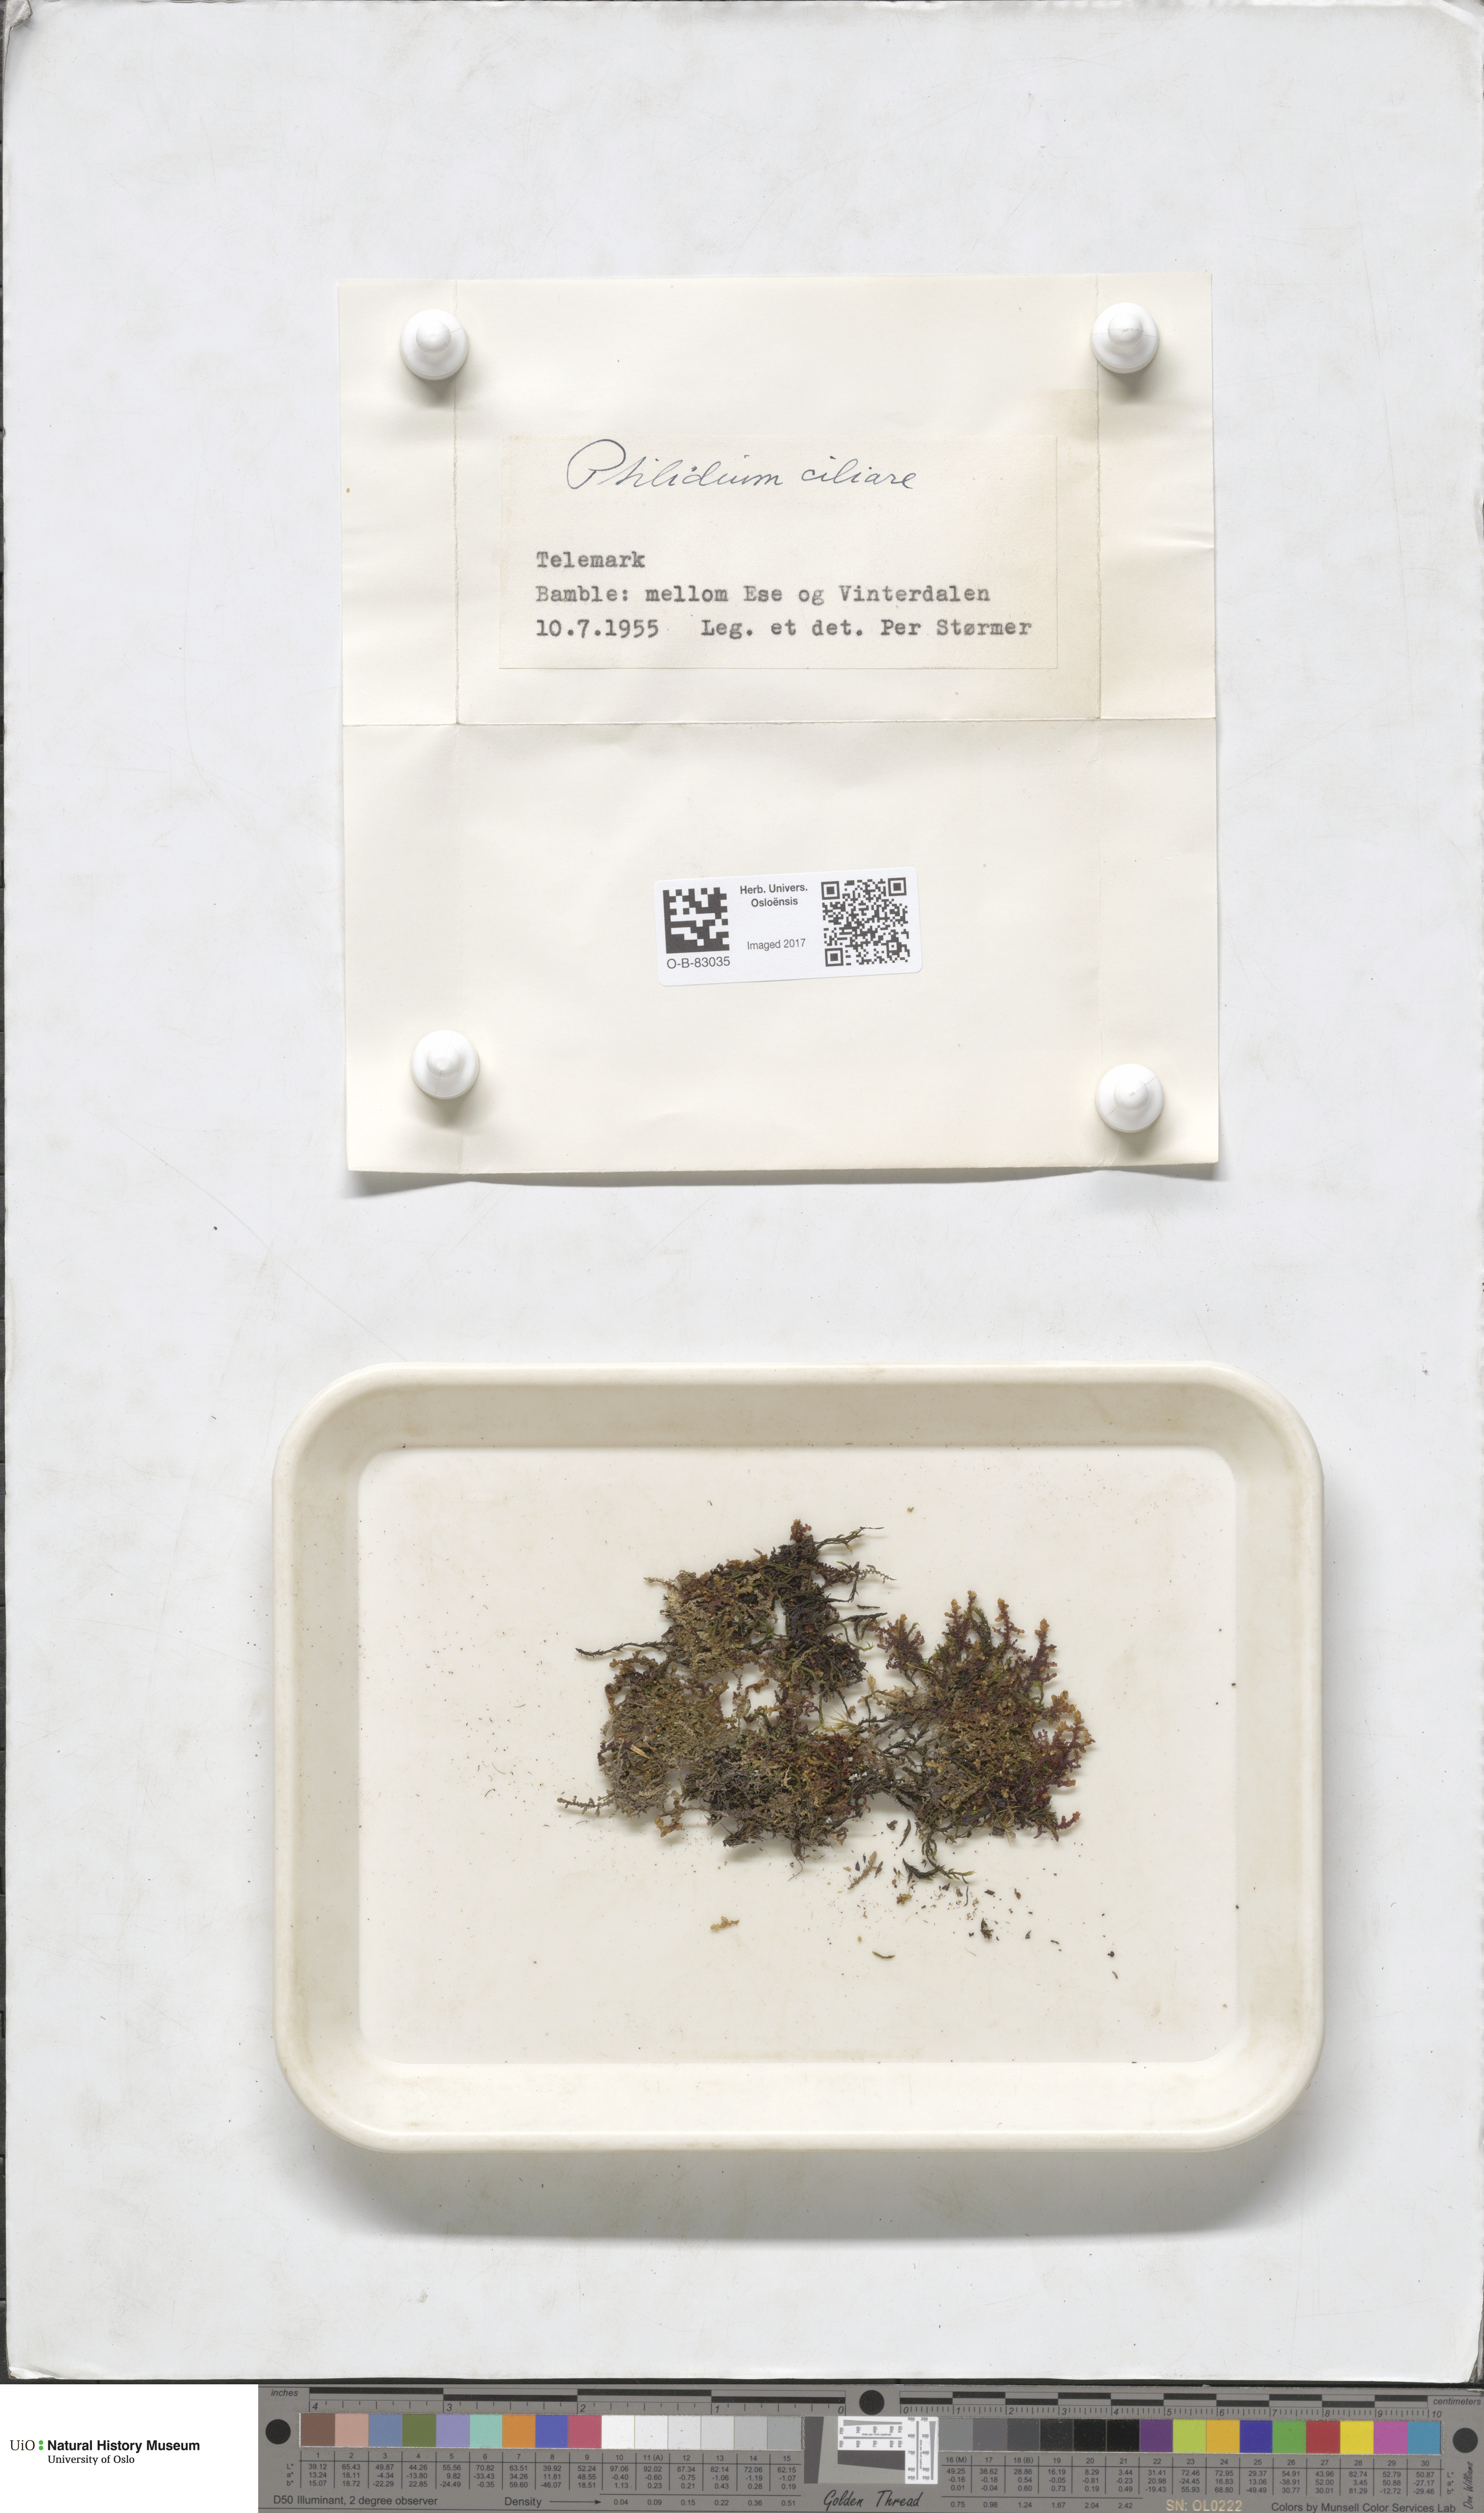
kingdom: Plantae
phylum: Marchantiophyta
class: Jungermanniopsida
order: Ptilidiales
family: Ptilidiaceae
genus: Ptilidium
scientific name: Ptilidium ciliare
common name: Ciliate fringewort
